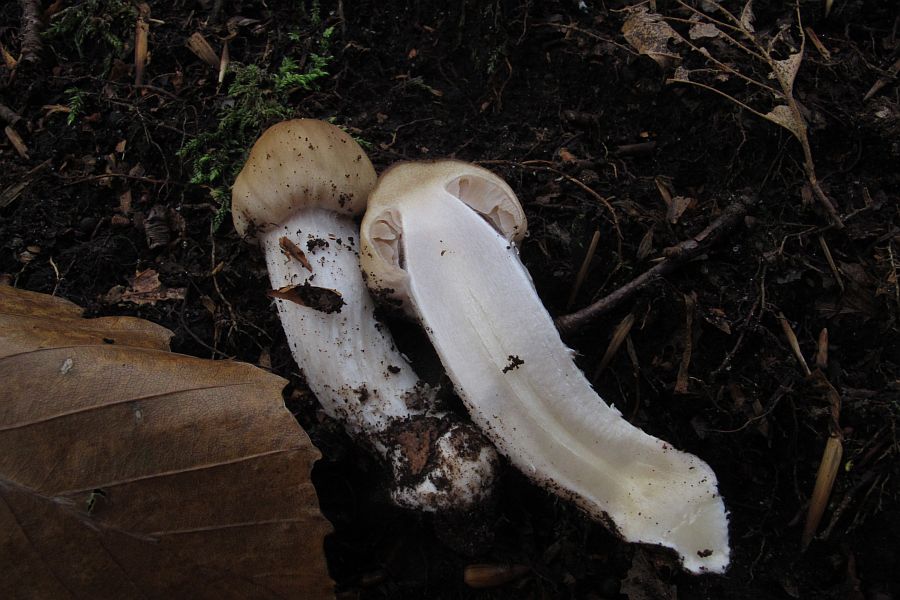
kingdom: Fungi
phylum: Basidiomycota
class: Agaricomycetes
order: Agaricales
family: Cortinariaceae
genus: Cortinarius
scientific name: Cortinarius elatior
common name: høj slørhat
